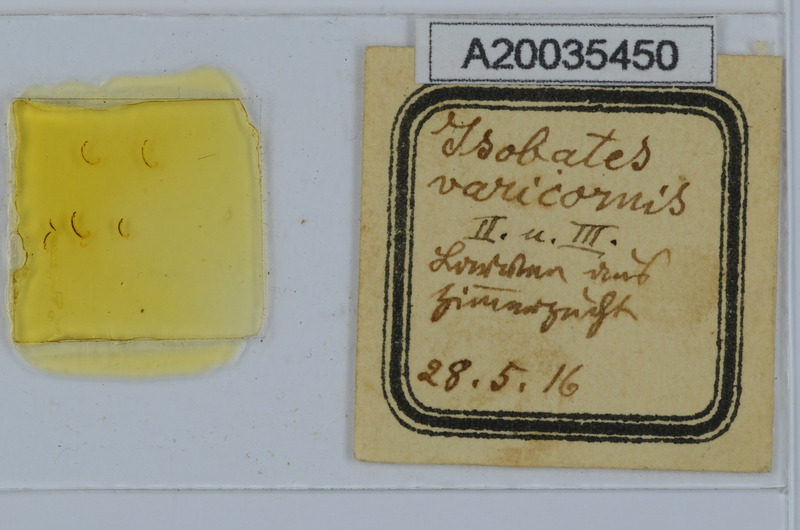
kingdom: Animalia
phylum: Arthropoda
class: Diplopoda
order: Julida
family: Nemasomatidae
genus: Isobates
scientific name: Isobates varicornis
